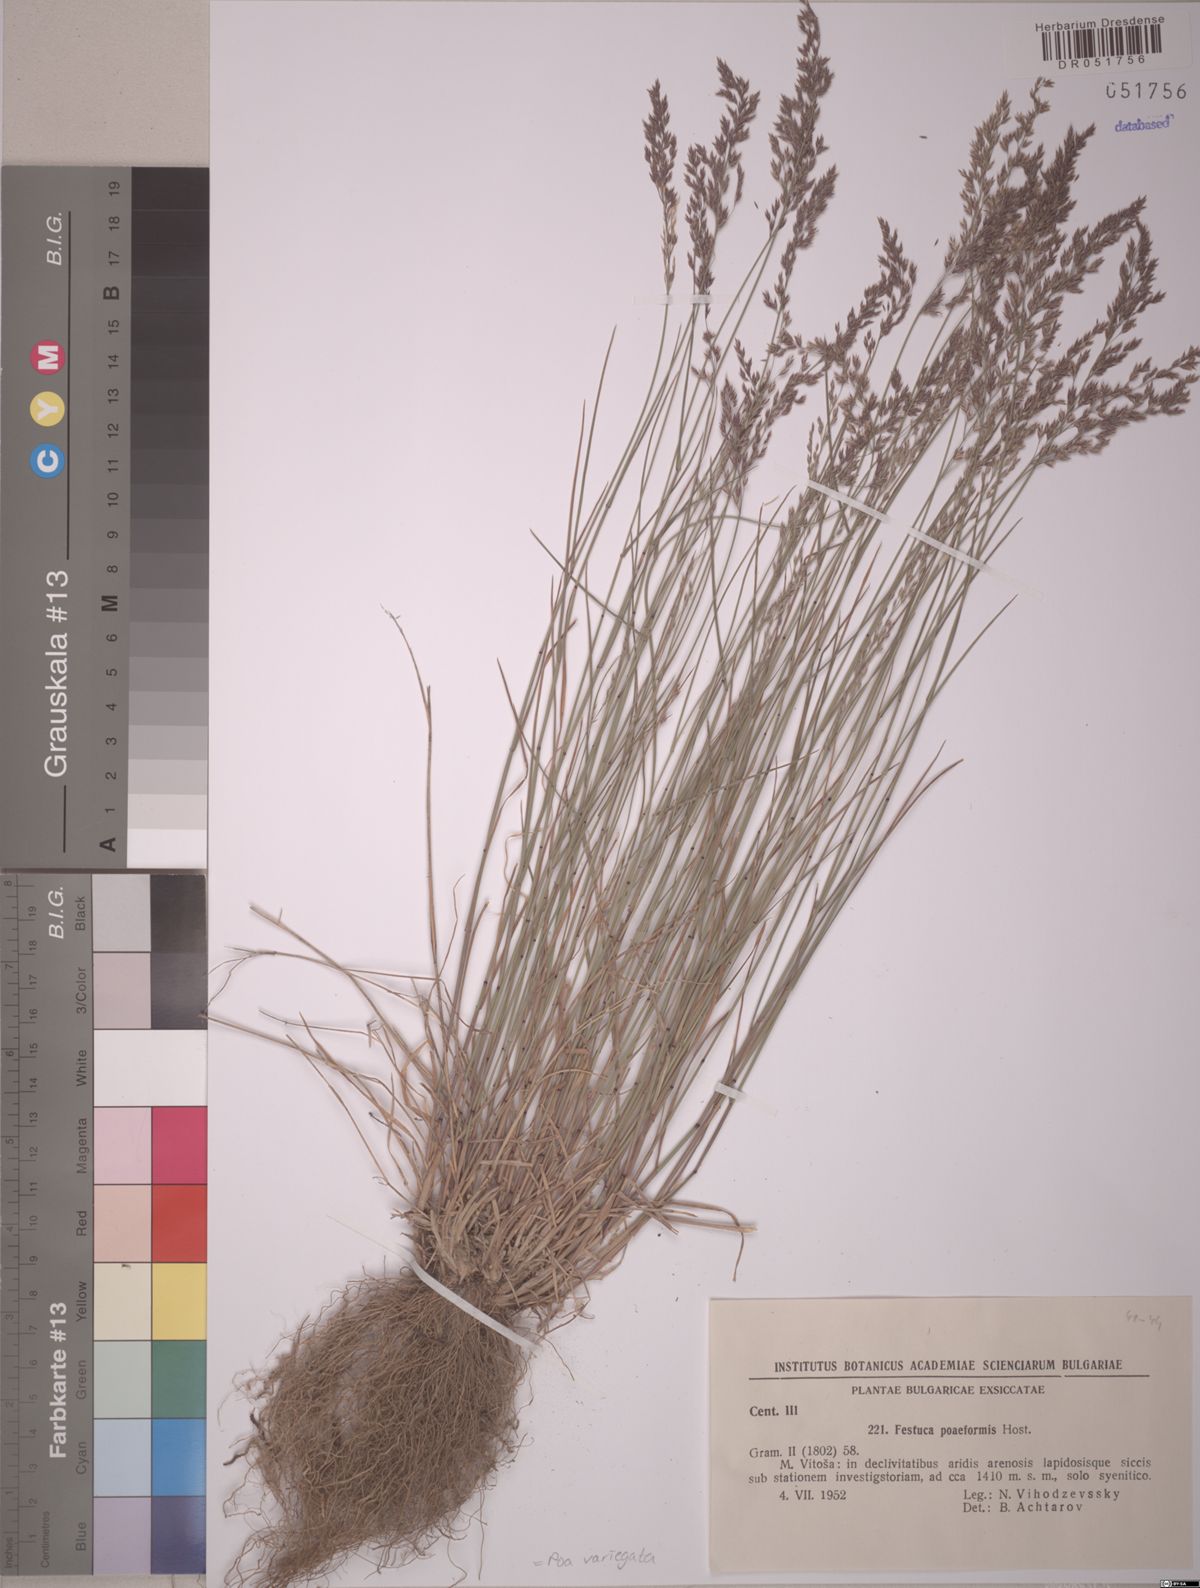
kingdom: Plantae
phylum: Tracheophyta
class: Liliopsida
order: Poales
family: Poaceae
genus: Bellardiochloa
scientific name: Bellardiochloa variegata
